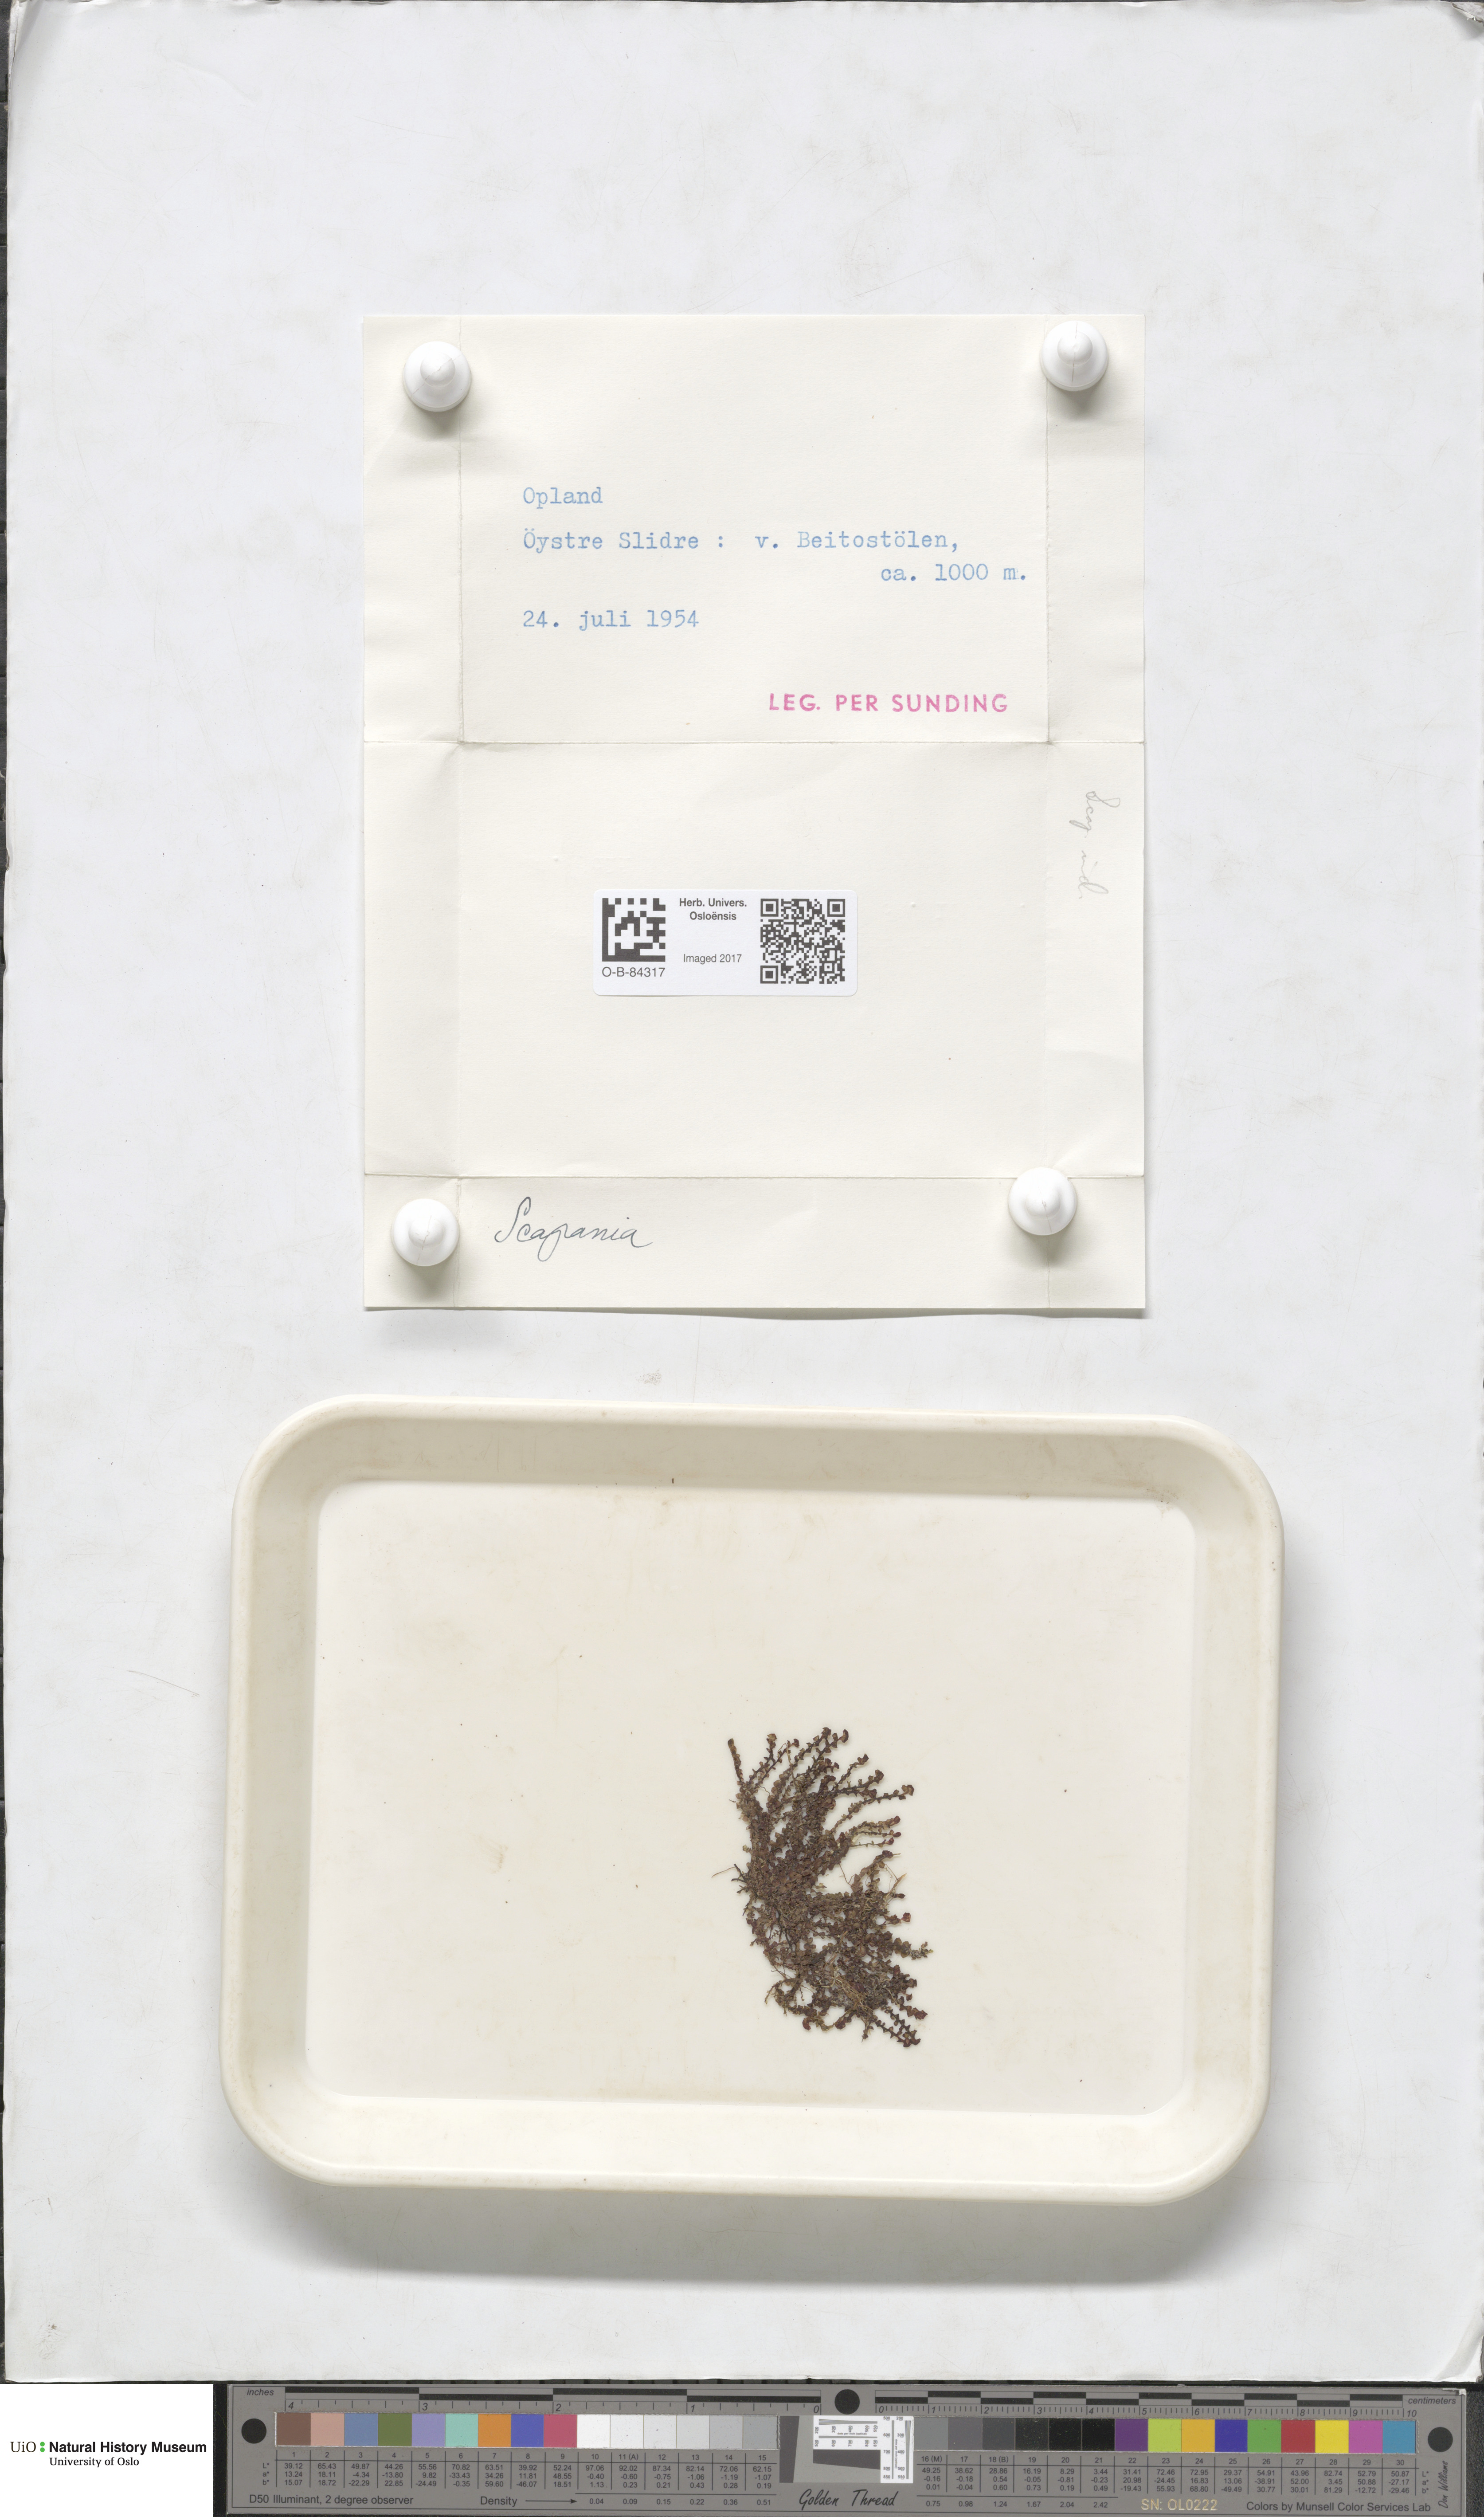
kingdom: Plantae
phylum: Marchantiophyta
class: Jungermanniopsida
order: Jungermanniales
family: Scapaniaceae
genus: Scapania
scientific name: Scapania
